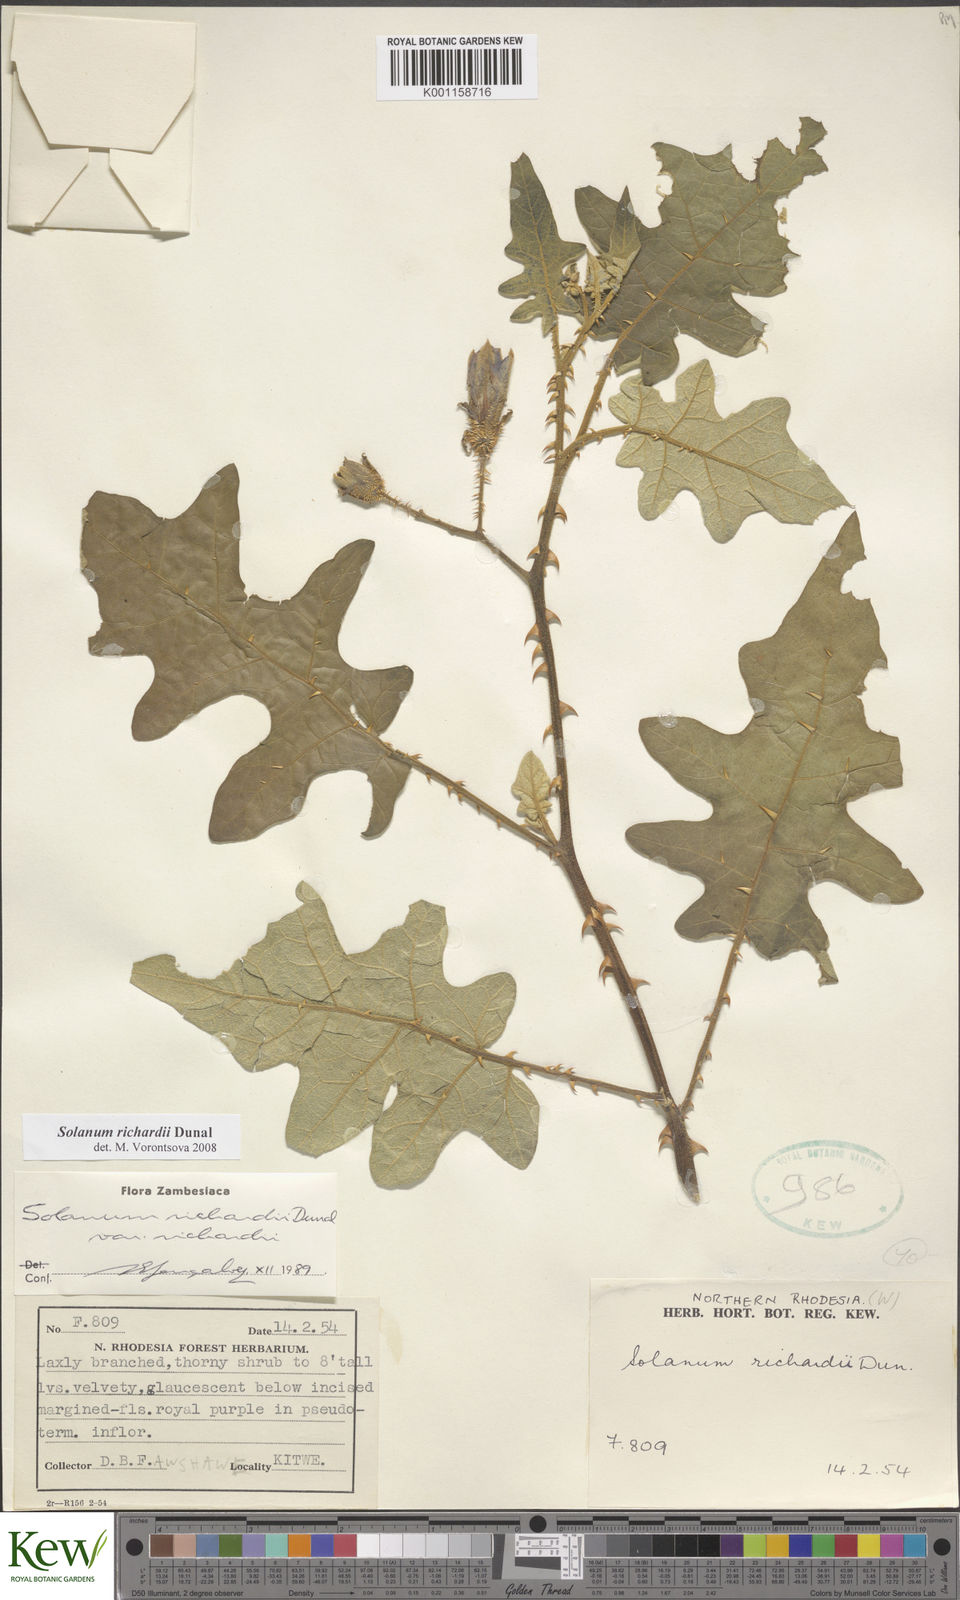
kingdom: Plantae
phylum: Tracheophyta
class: Magnoliopsida
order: Solanales
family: Solanaceae
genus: Solanum
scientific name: Solanum richardii
